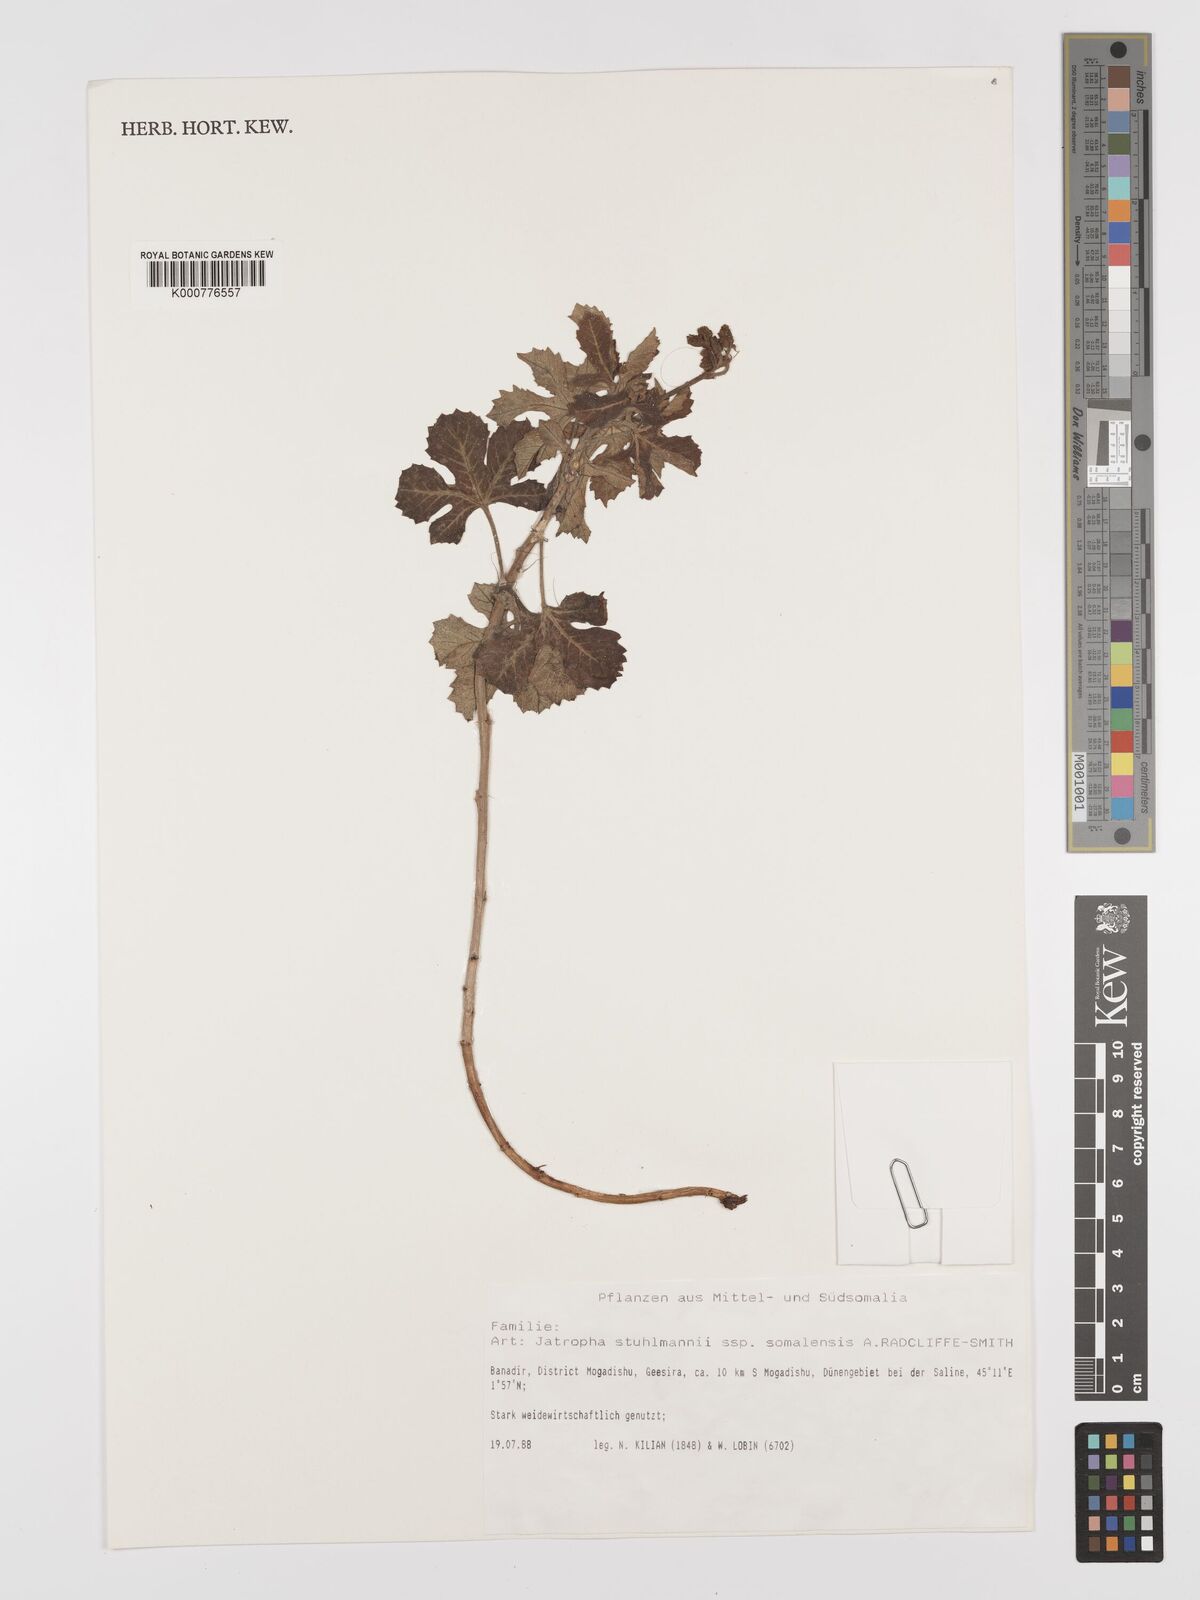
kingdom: Plantae
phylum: Tracheophyta
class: Magnoliopsida
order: Malpighiales
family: Euphorbiaceae
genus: Jatropha
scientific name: Jatropha stuhlmannii
